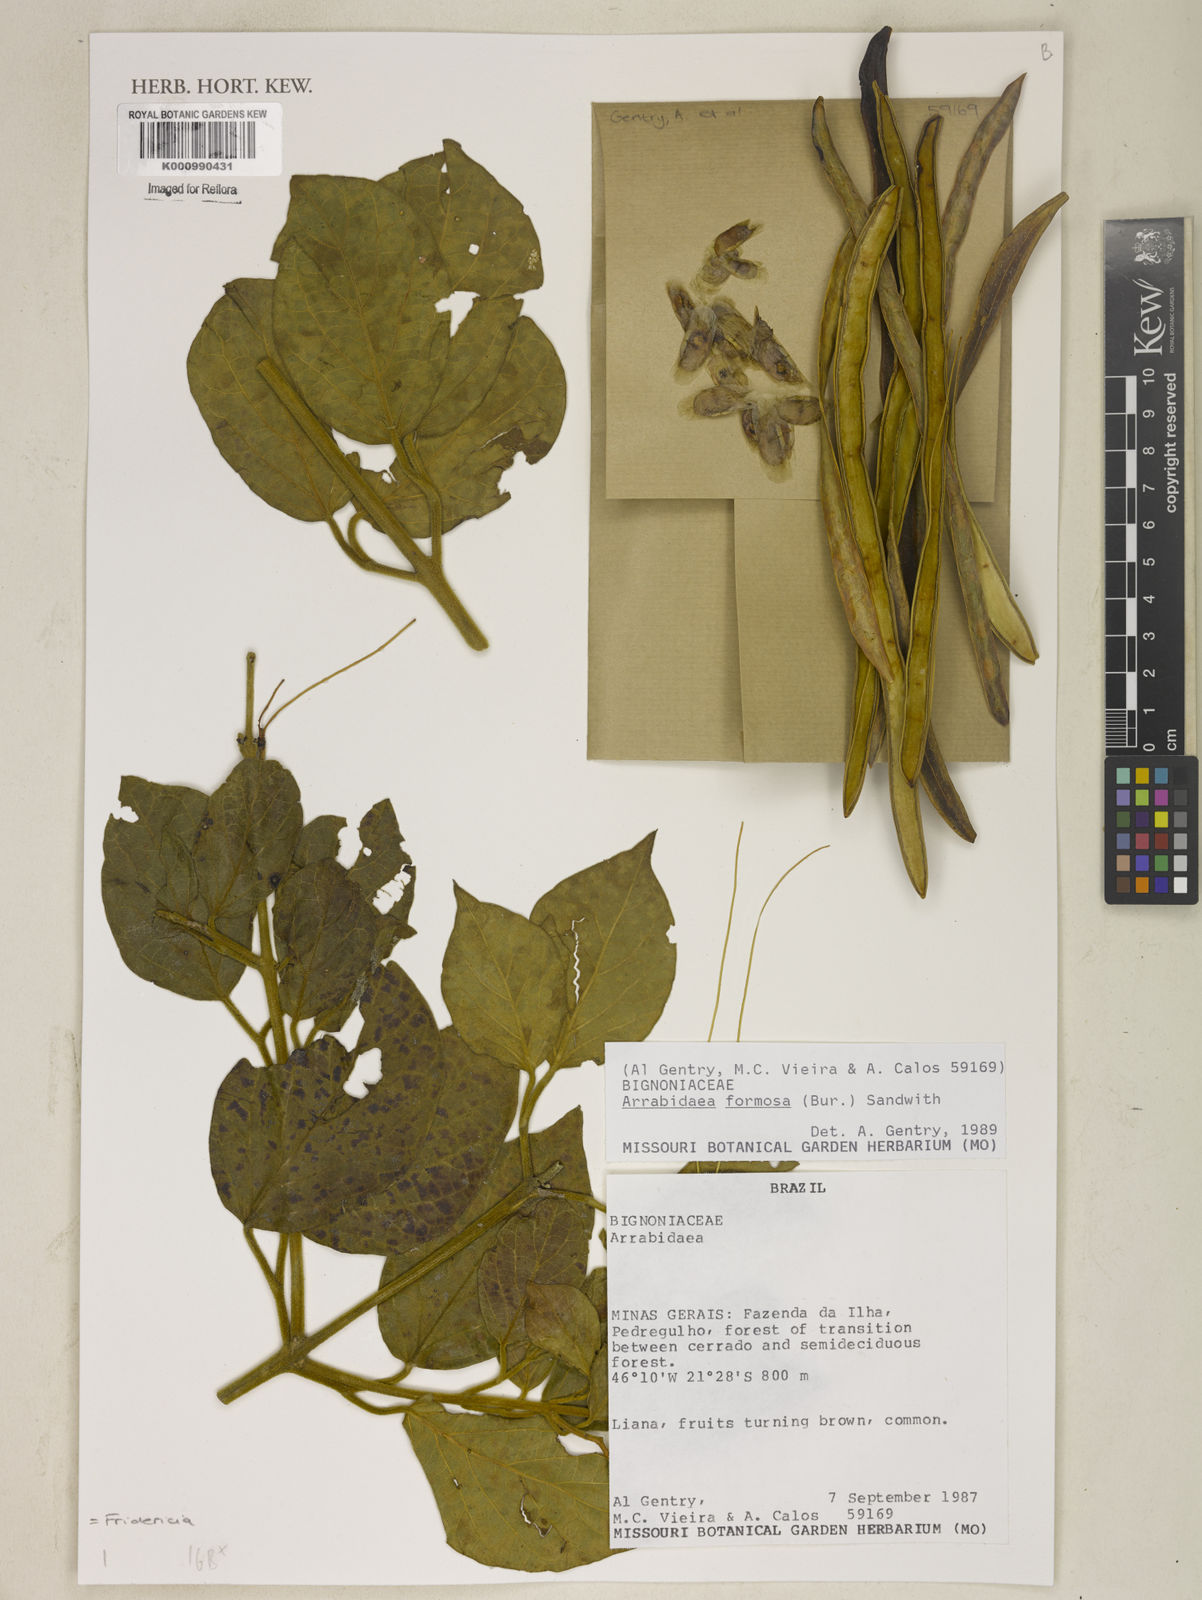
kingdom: Plantae
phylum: Tracheophyta
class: Magnoliopsida
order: Lamiales
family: Bignoniaceae
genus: Fridericia
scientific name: Fridericia formosa
